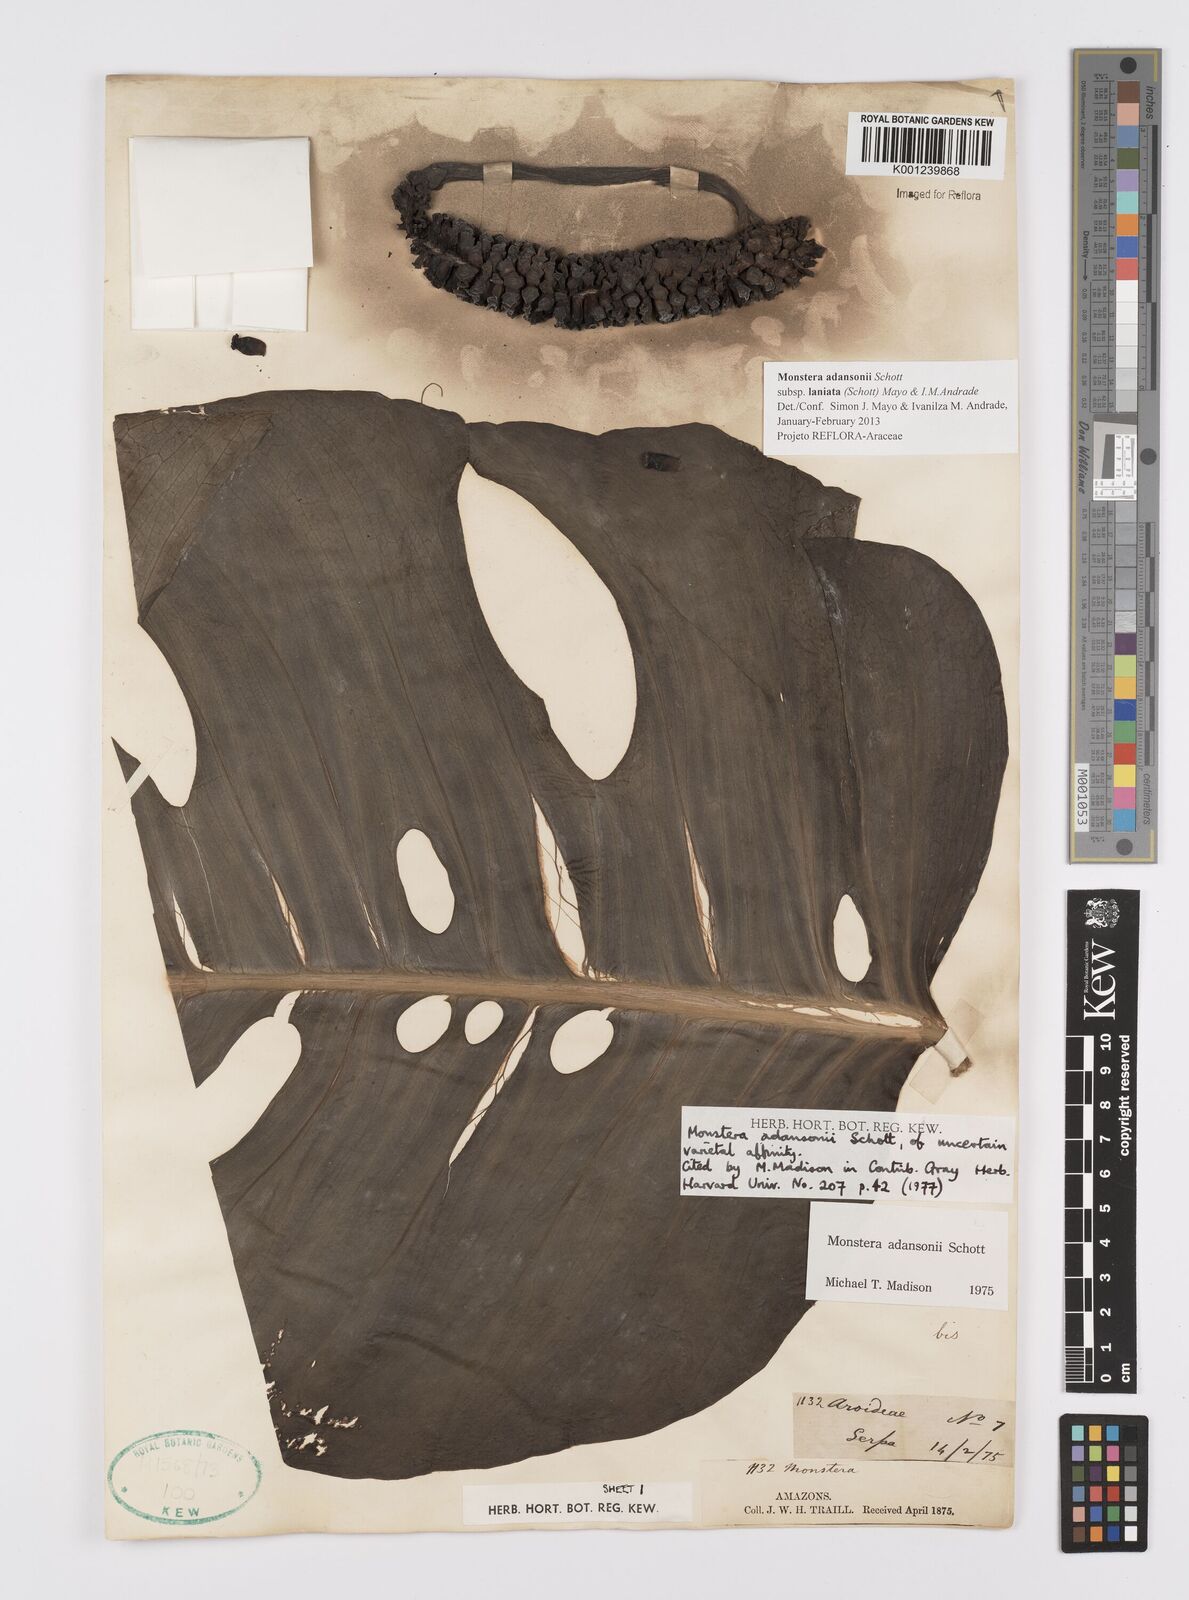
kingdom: Plantae
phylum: Tracheophyta
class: Liliopsida
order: Alismatales
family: Araceae
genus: Monstera
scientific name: Monstera adansonii
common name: Tarovine
